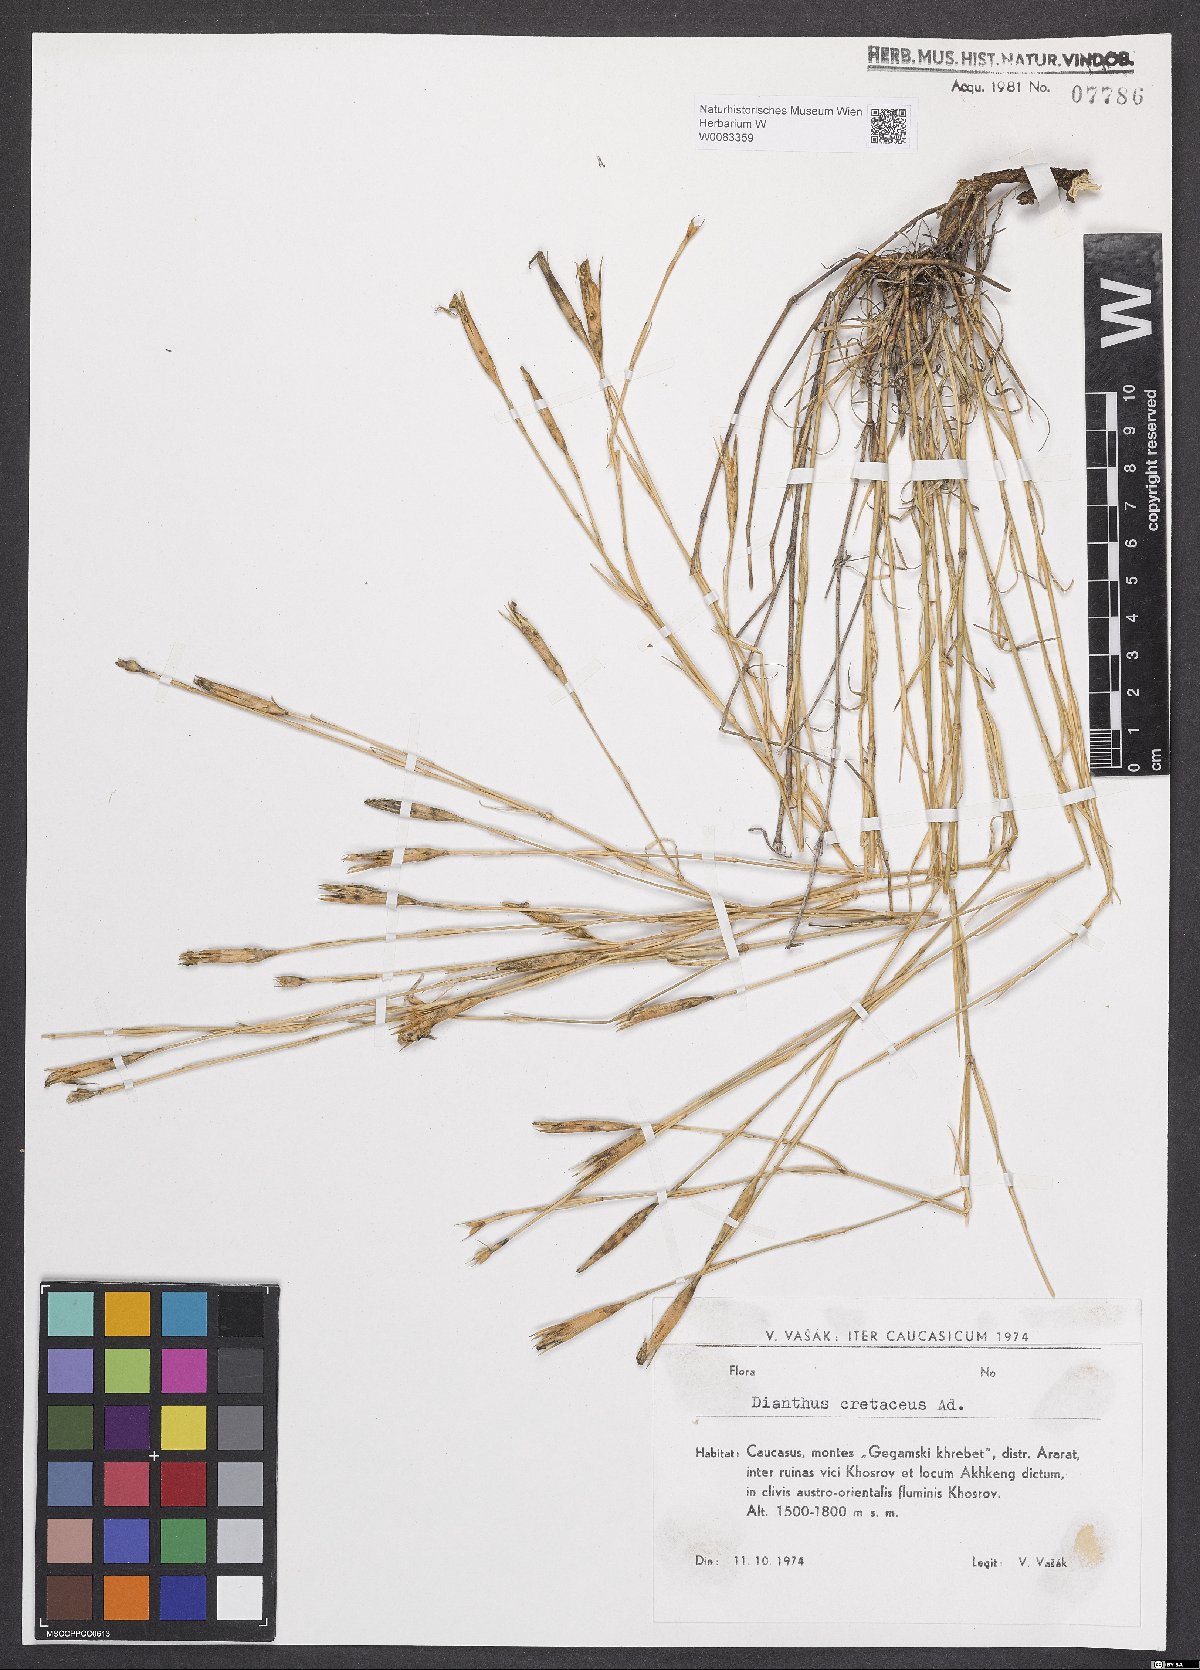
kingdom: Plantae
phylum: Tracheophyta
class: Magnoliopsida
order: Caryophyllales
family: Caryophyllaceae
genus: Dianthus
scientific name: Dianthus cretaceus
